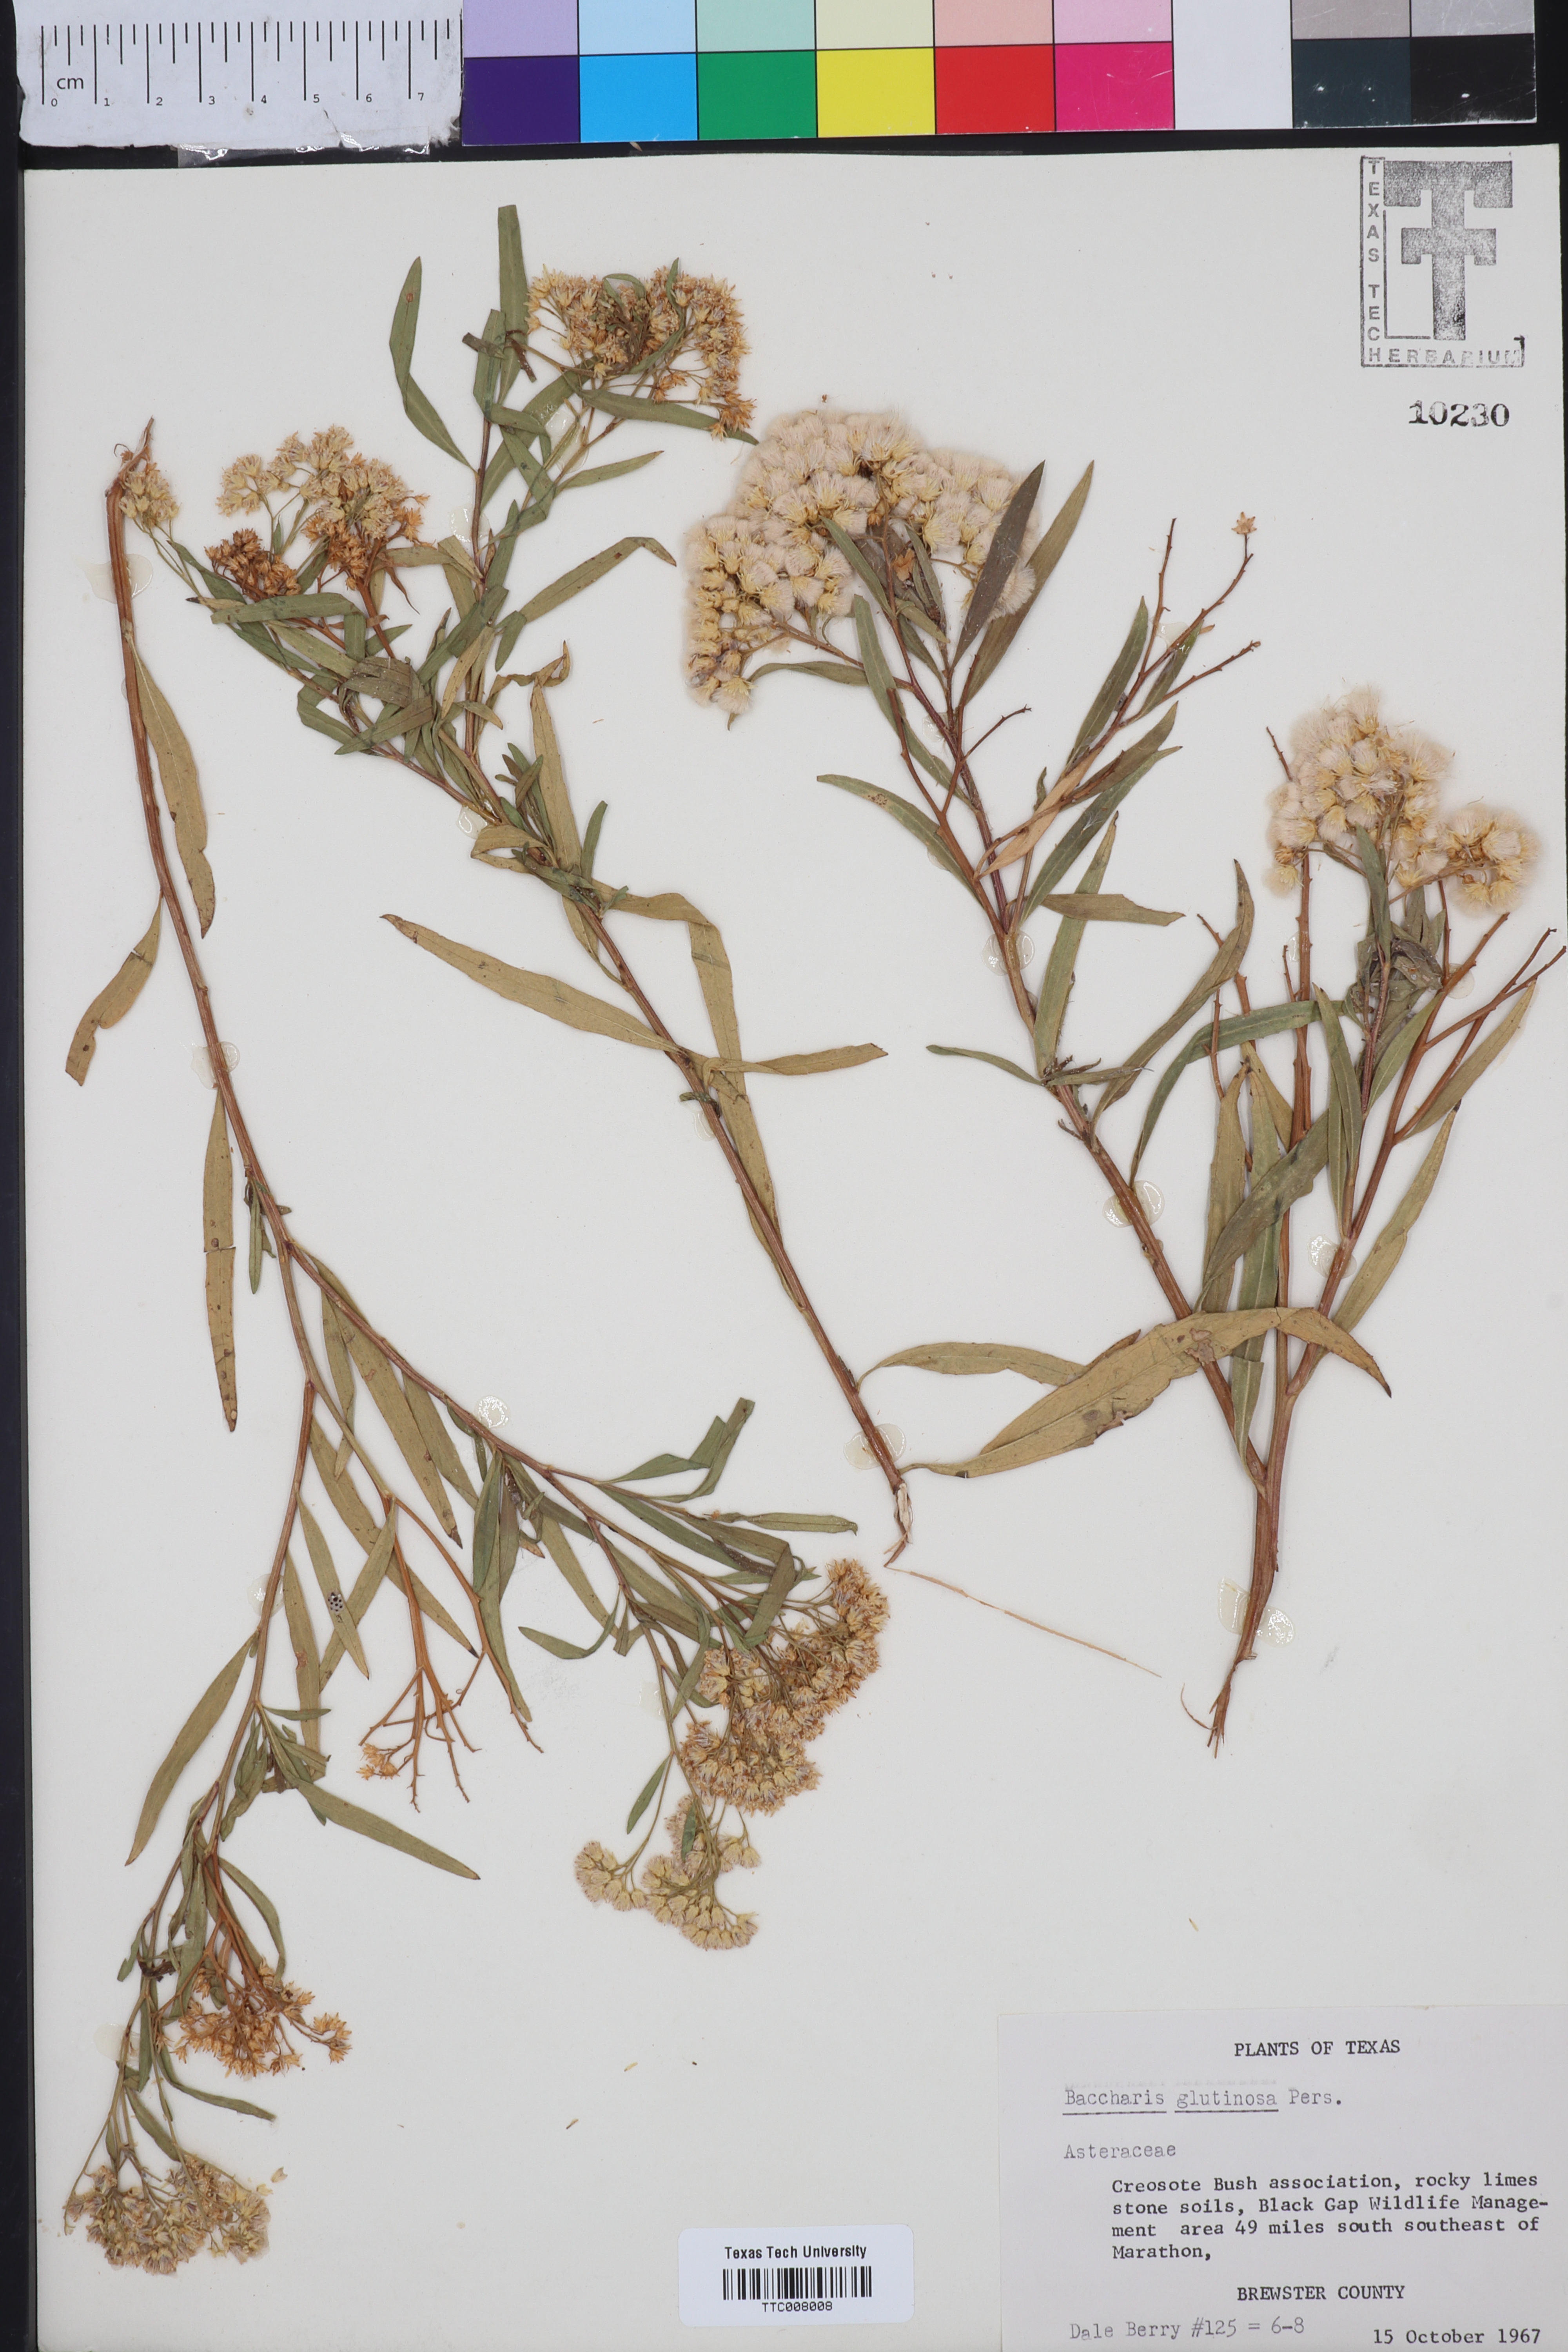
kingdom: Plantae
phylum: Tracheophyta
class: Magnoliopsida
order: Asterales
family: Asteraceae
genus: Baccharis
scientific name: Baccharis glutinosa
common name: Saltmarsh baccharis
